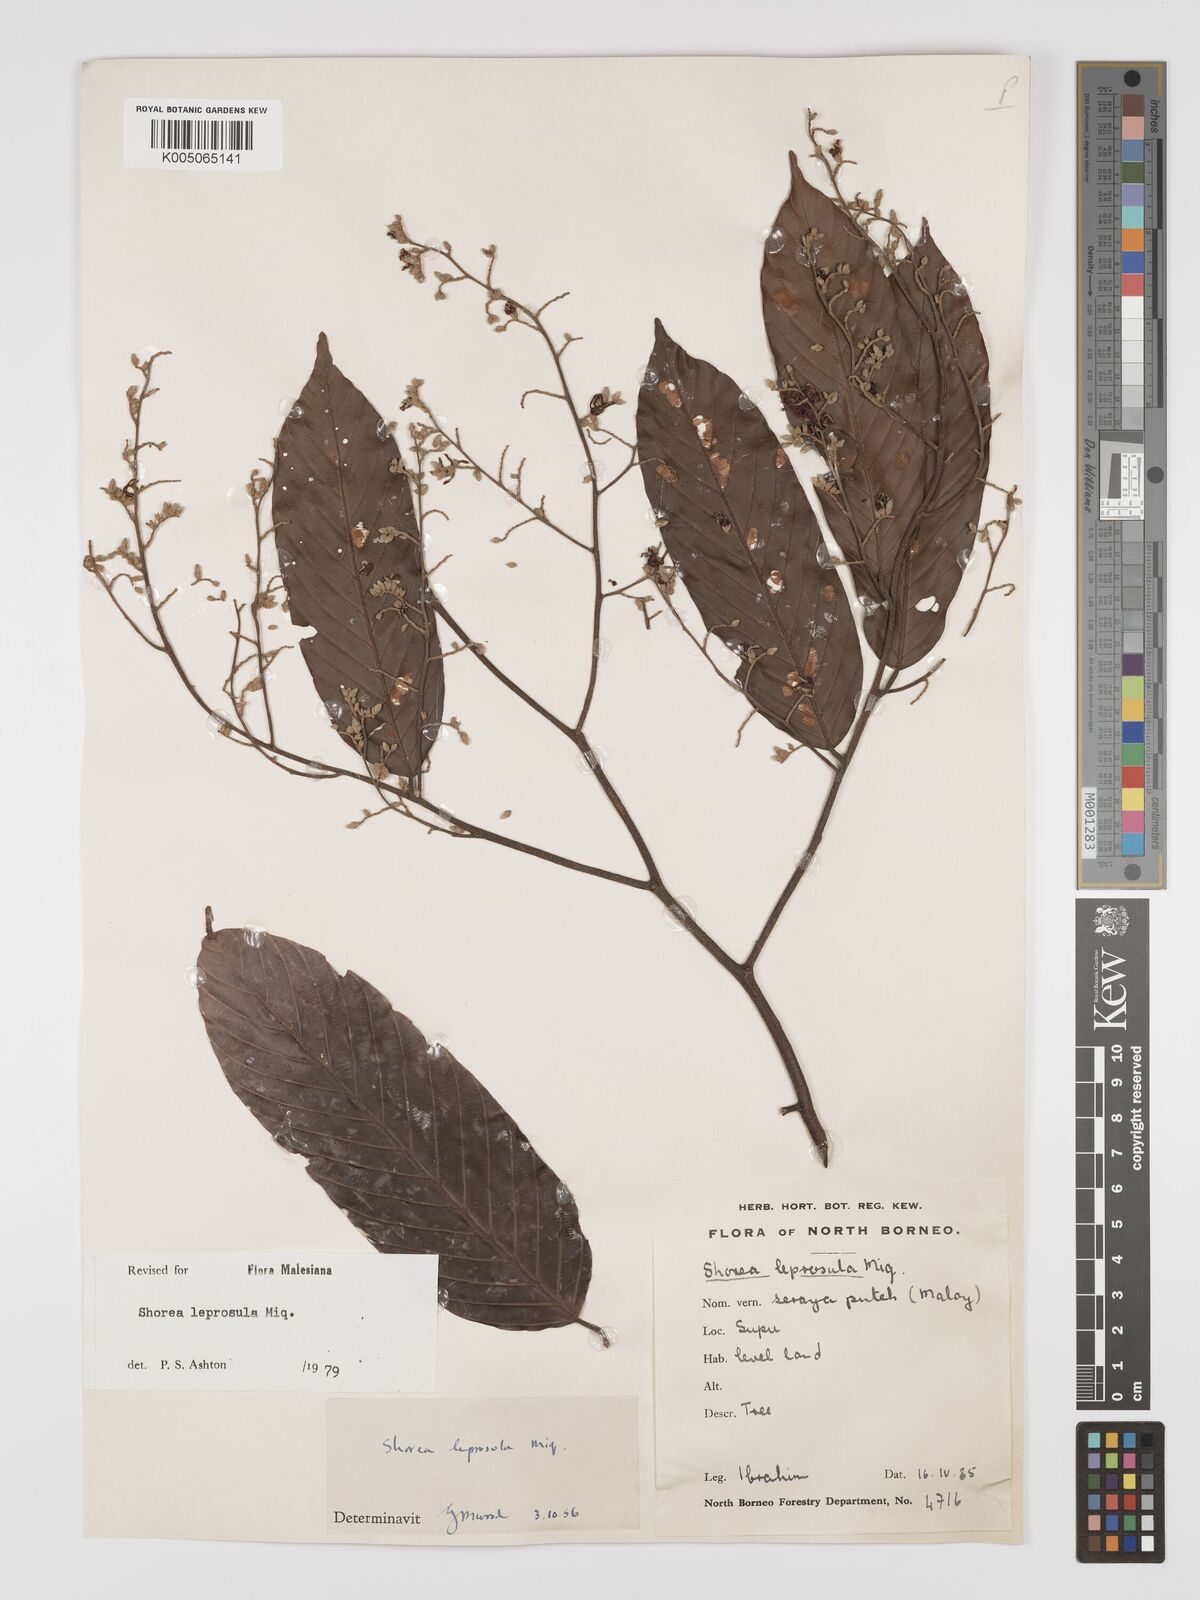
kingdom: Plantae
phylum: Tracheophyta
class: Magnoliopsida
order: Malvales
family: Dipterocarpaceae
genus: Shorea
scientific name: Shorea leprosula
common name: Light red meranti
